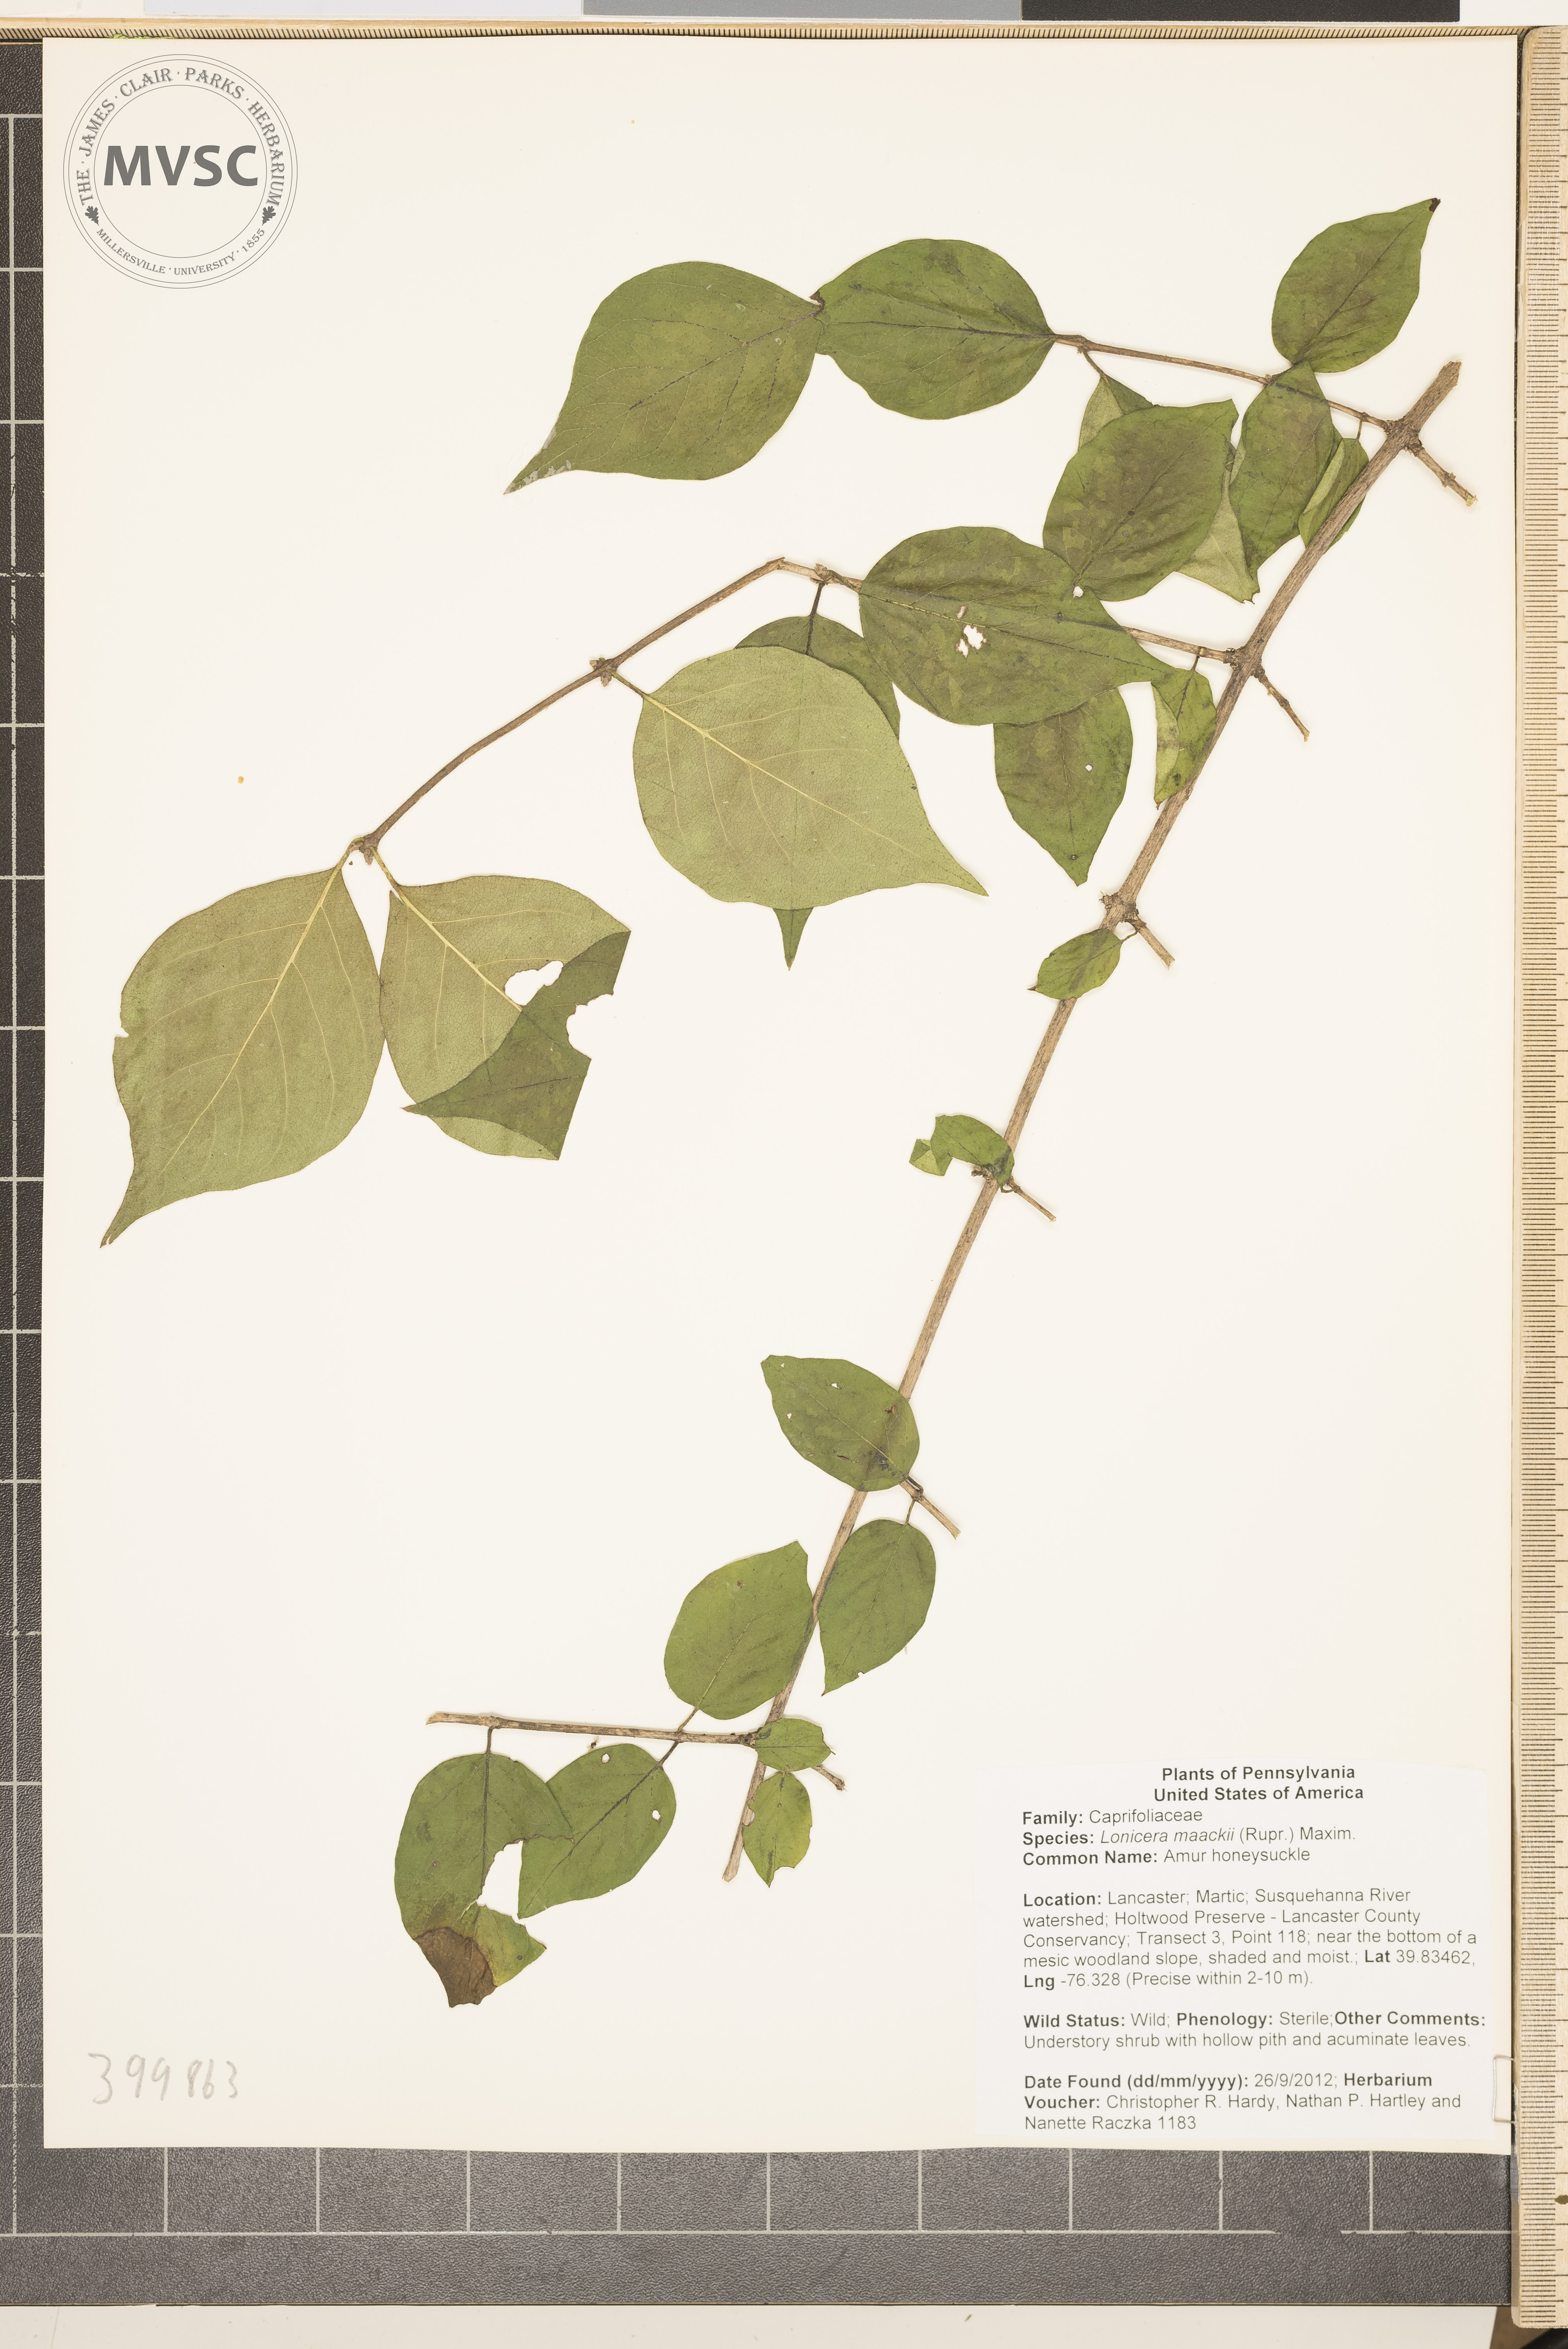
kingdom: Plantae
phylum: Tracheophyta
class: Magnoliopsida
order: Dipsacales
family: Caprifoliaceae
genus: Lonicera
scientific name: Lonicera maackii
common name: Amur honeysuckle
